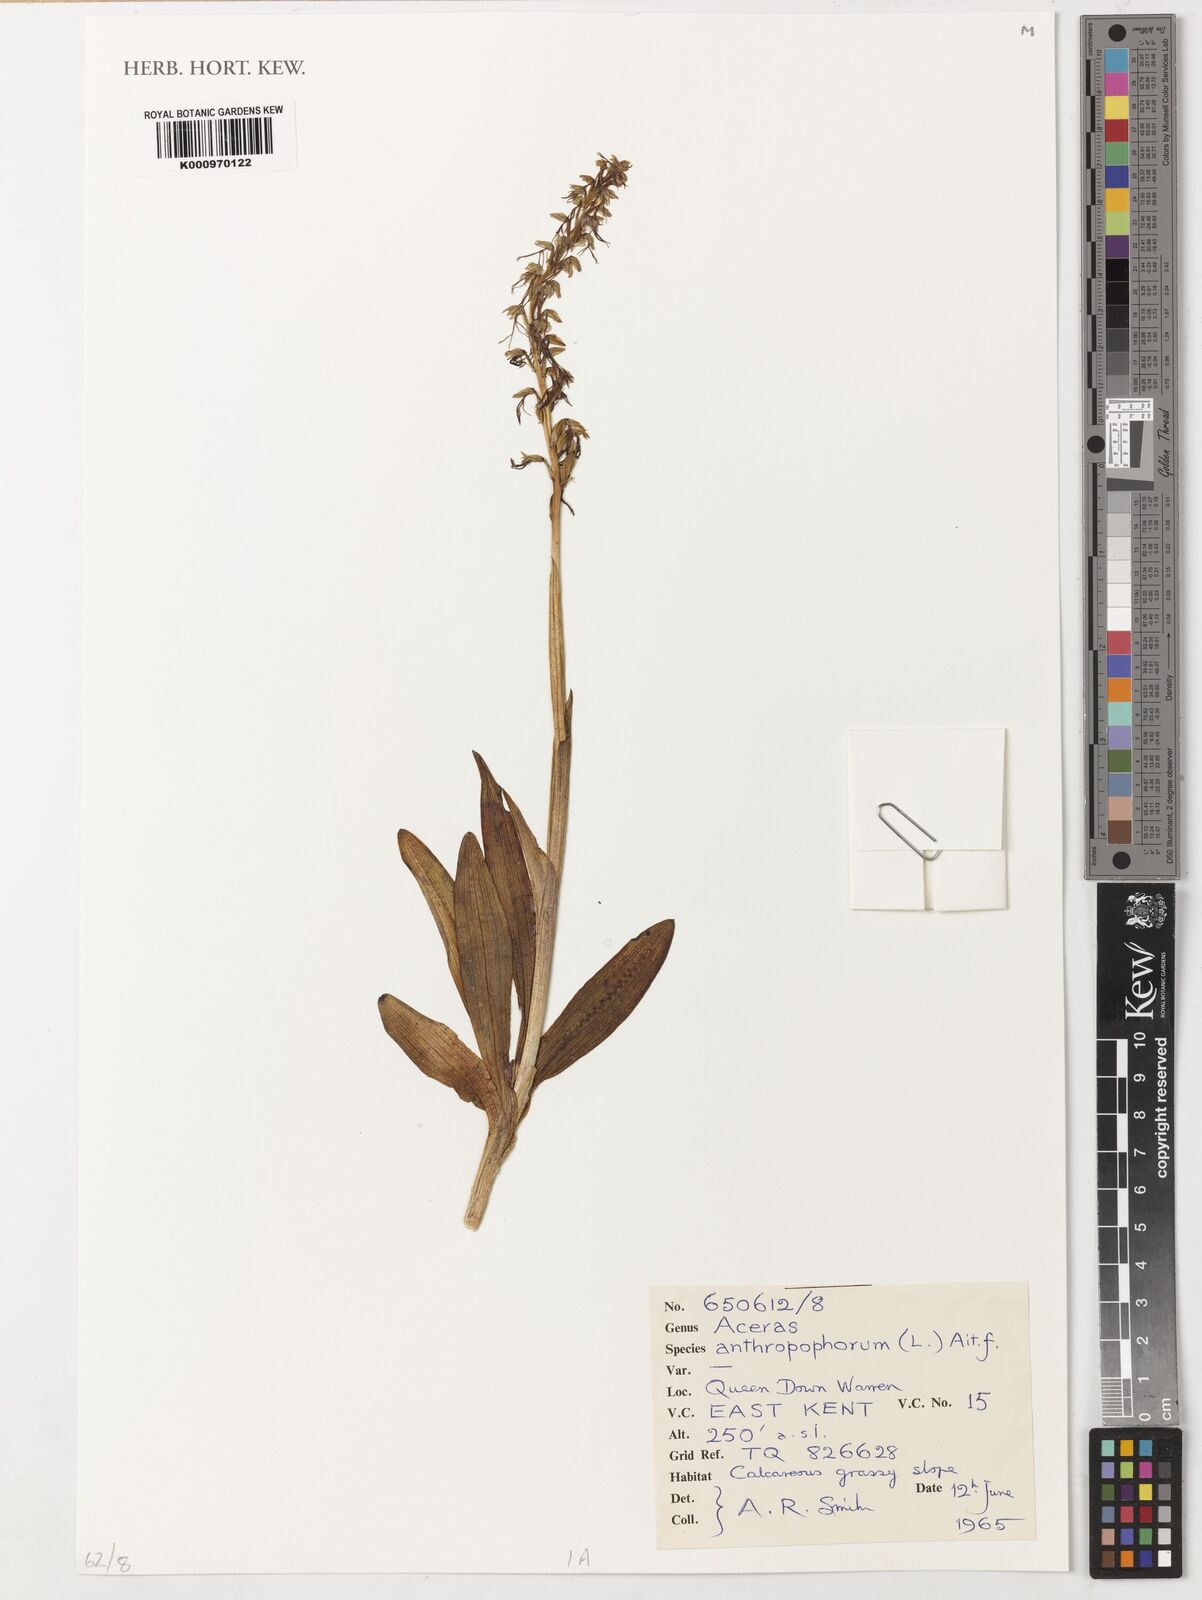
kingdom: Plantae
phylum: Tracheophyta
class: Liliopsida
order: Asparagales
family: Orchidaceae
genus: Orchis
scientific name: Orchis
